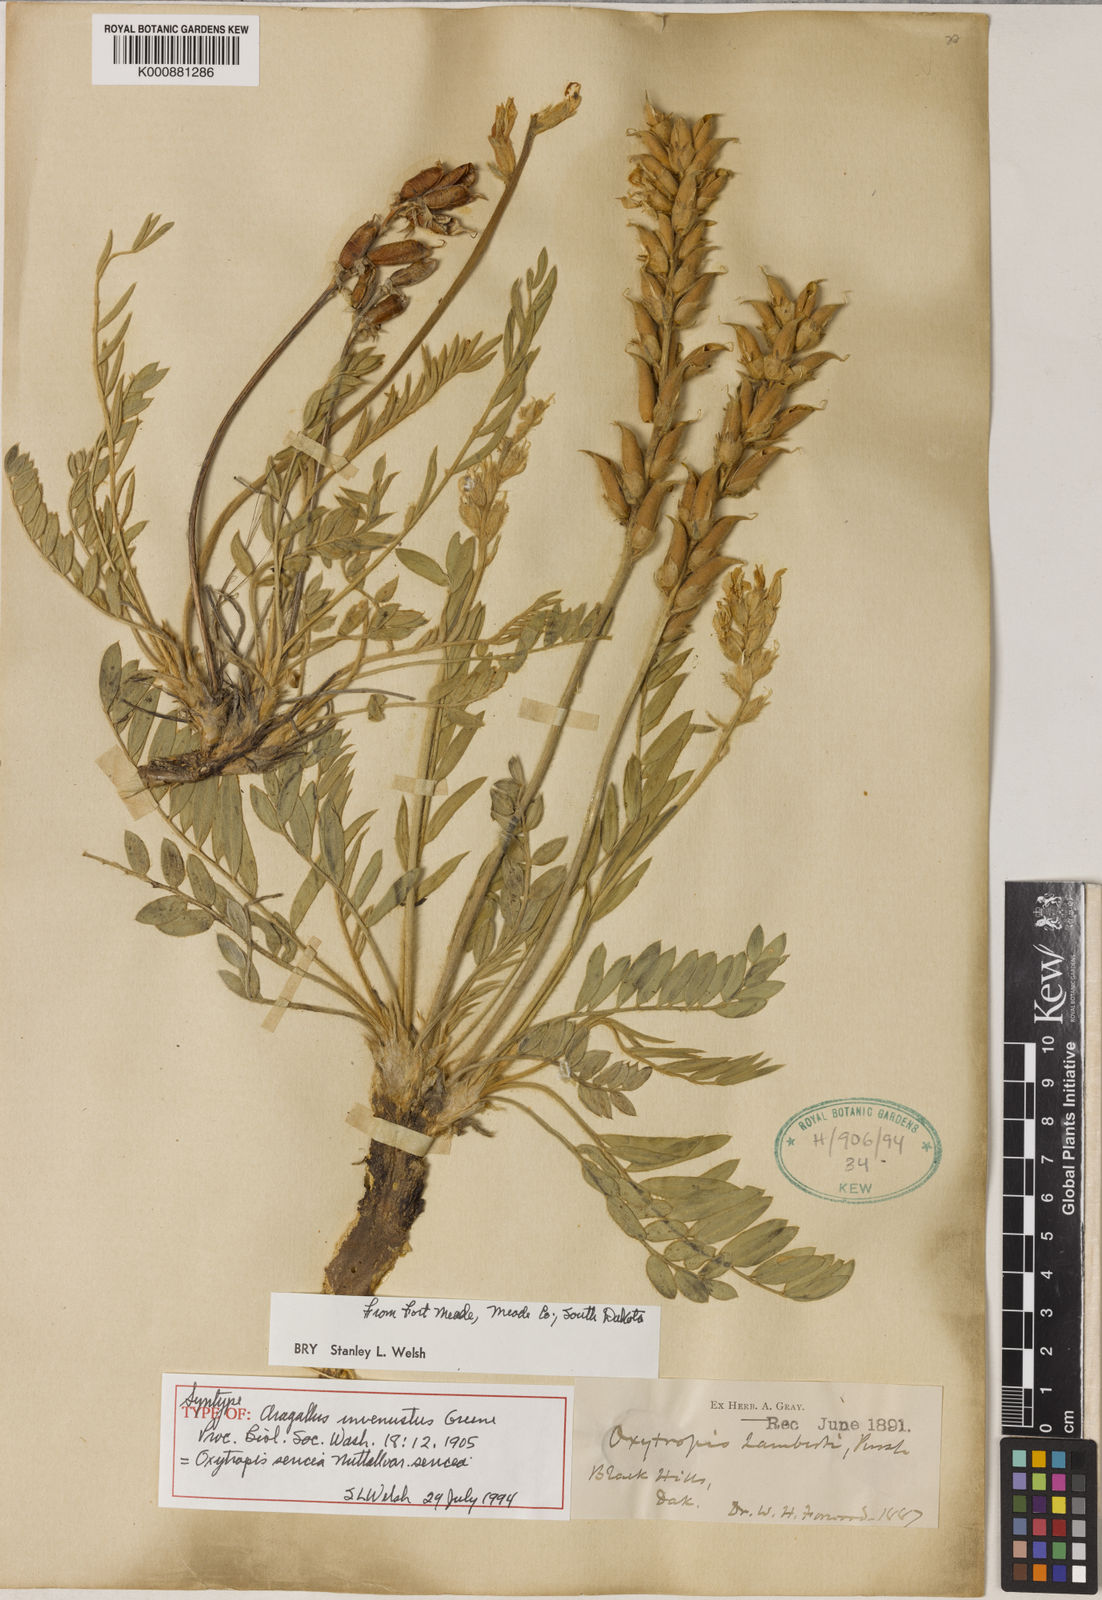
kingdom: Plantae
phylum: Tracheophyta
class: Magnoliopsida
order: Fabales
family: Fabaceae
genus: Oxytropis
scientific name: Oxytropis sericea
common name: Silky locoweed
